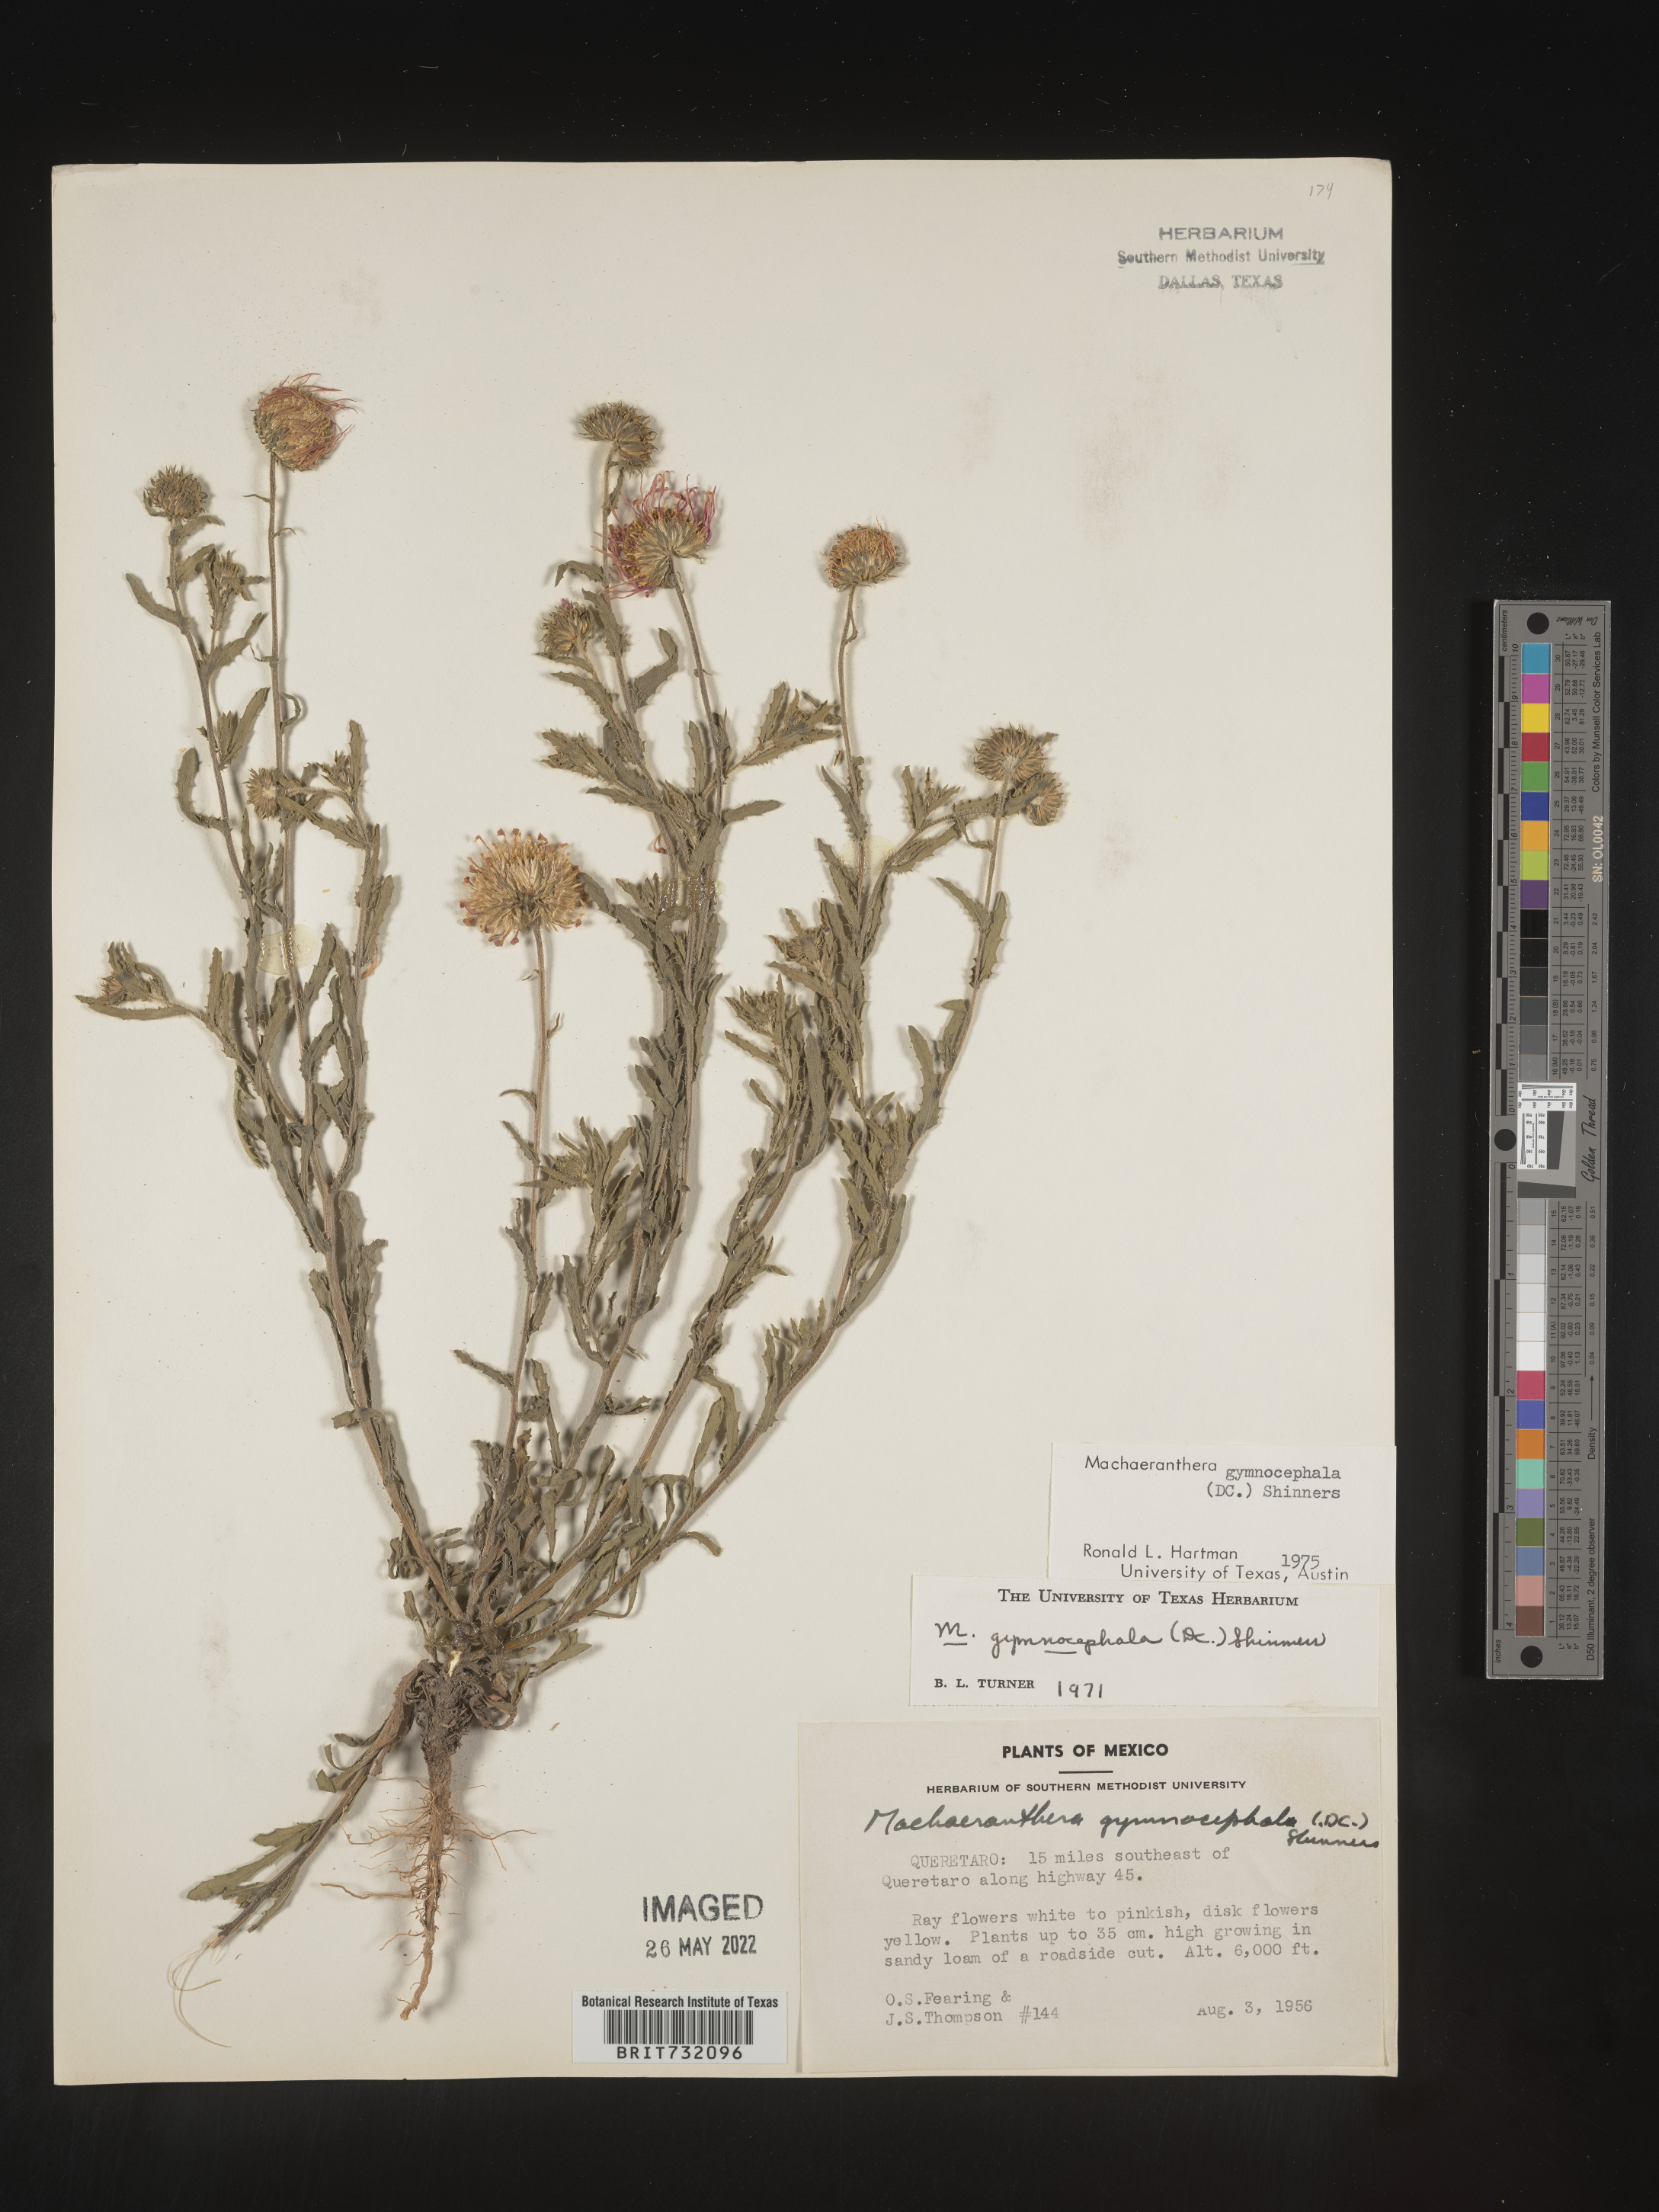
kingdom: Plantae
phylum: Tracheophyta
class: Magnoliopsida
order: Asterales
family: Asteraceae
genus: Xanthisma
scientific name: Xanthisma blephariphyllum
